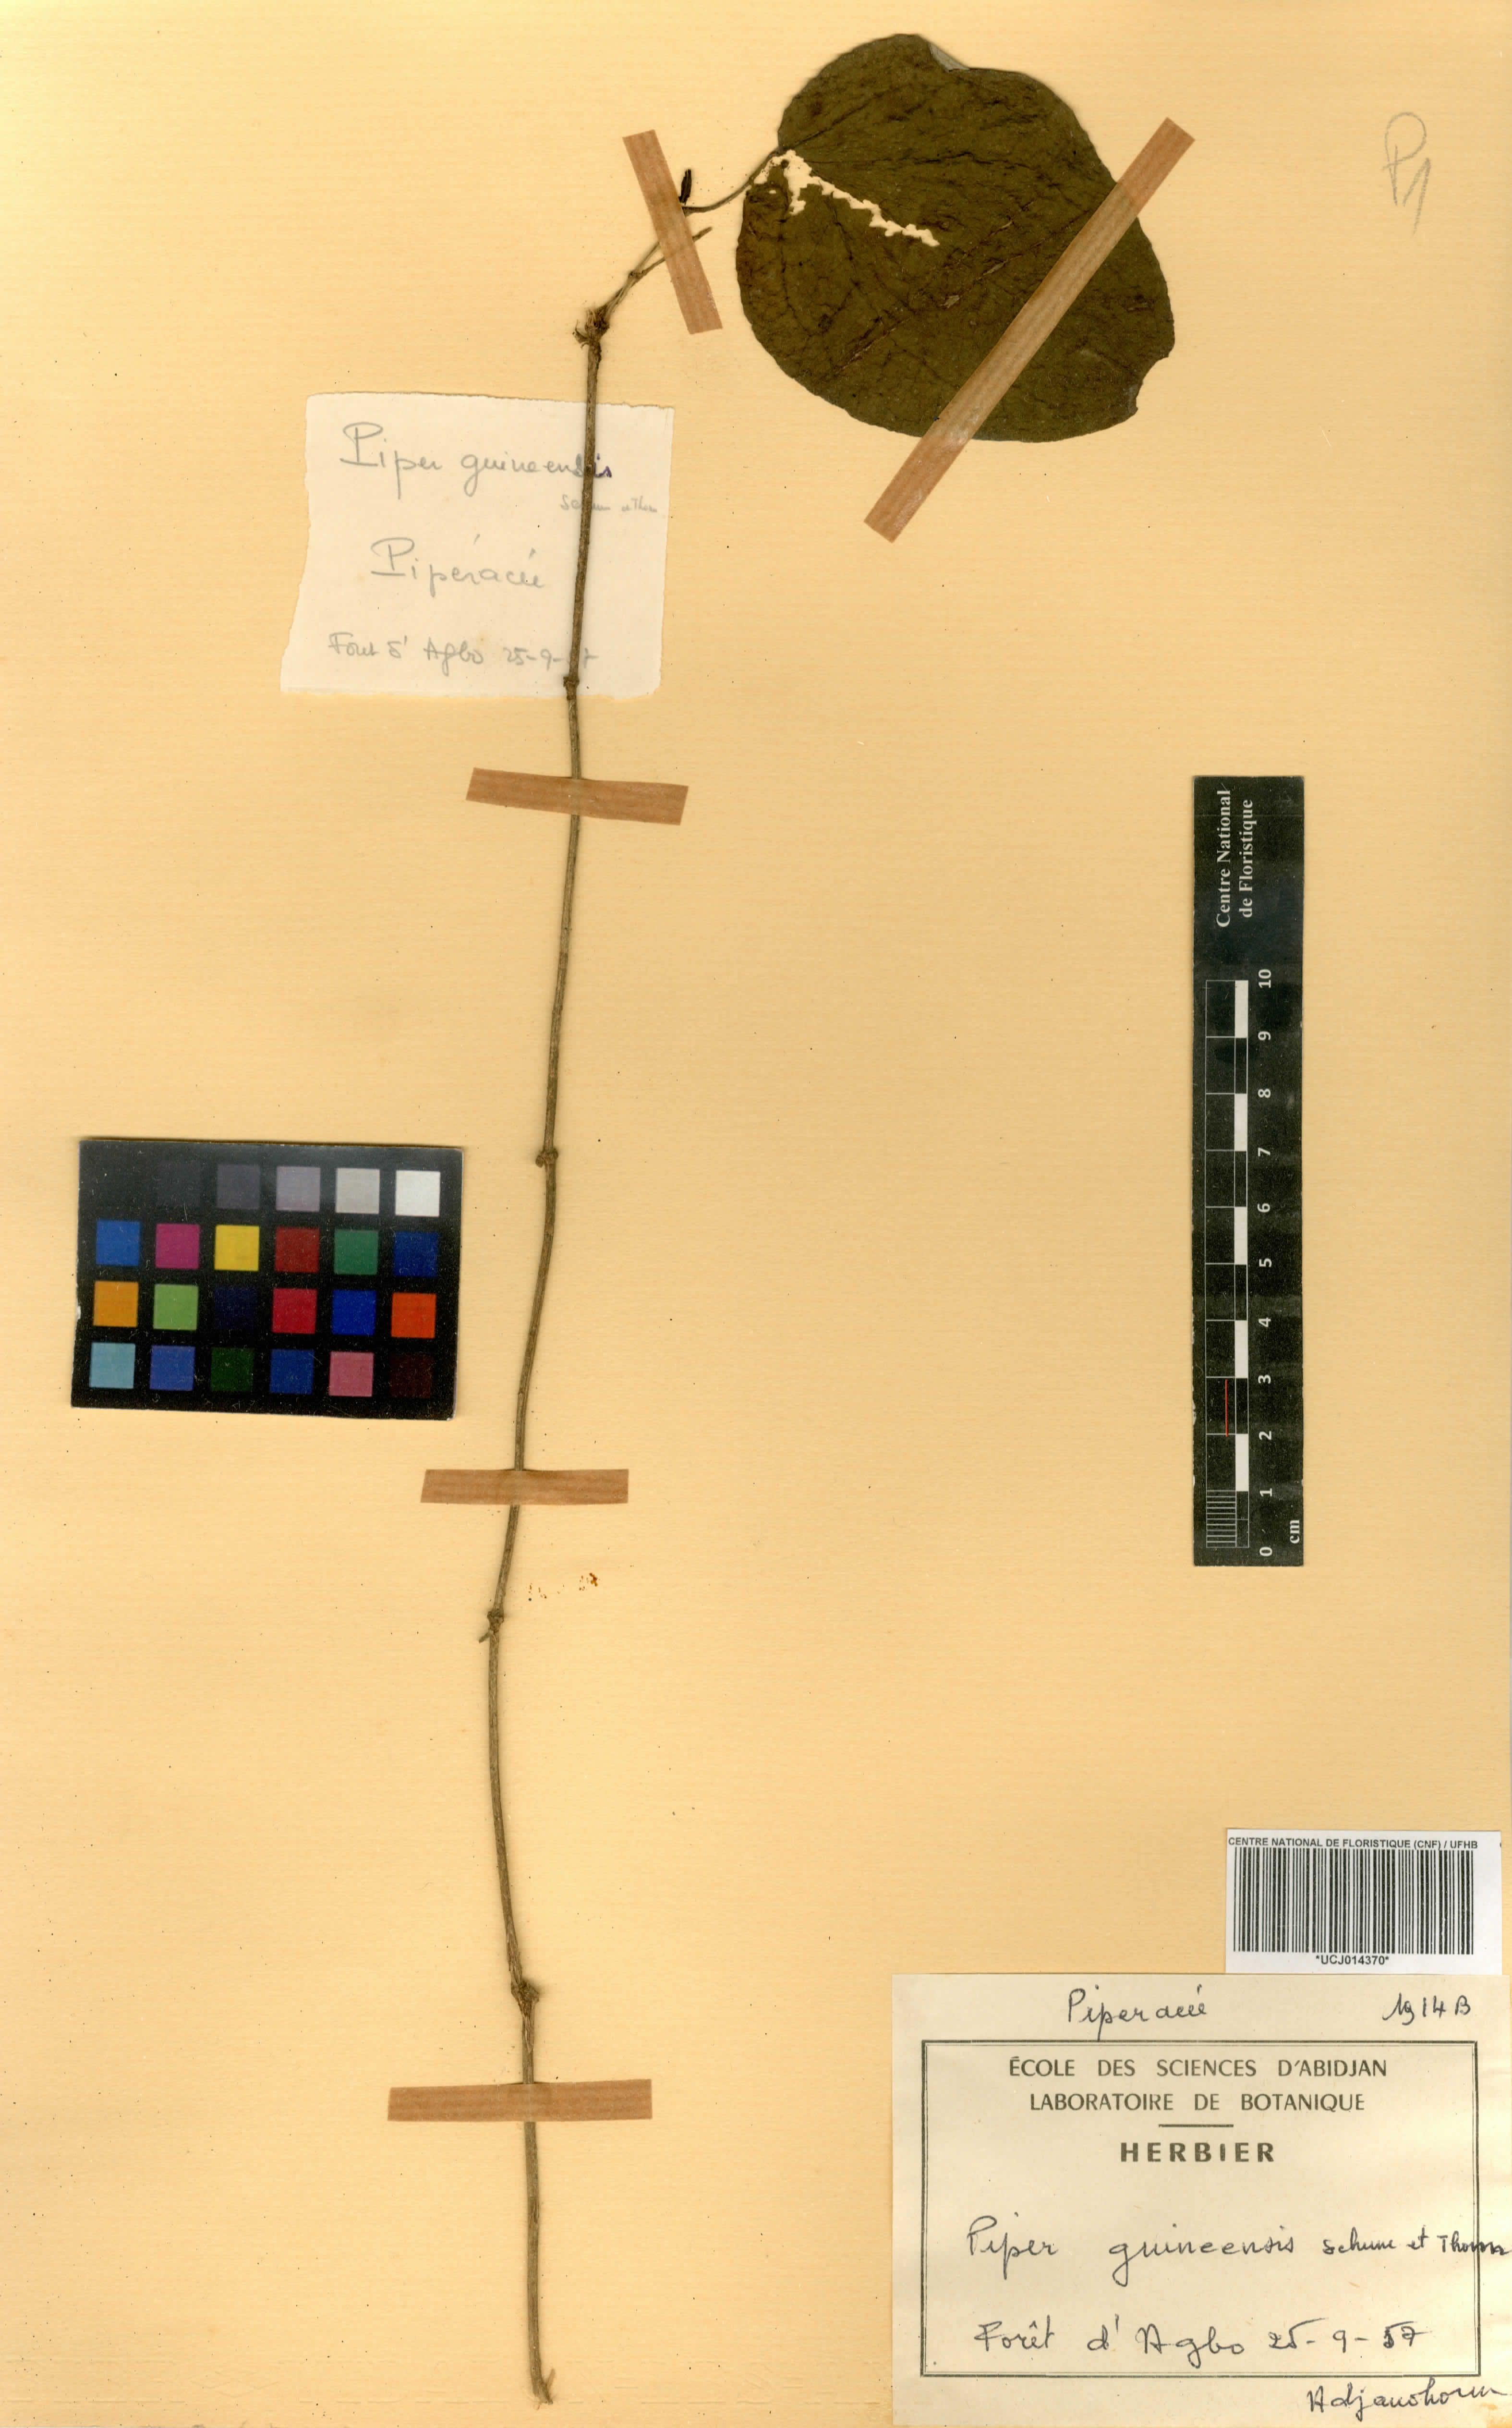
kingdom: Plantae
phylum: Tracheophyta
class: Magnoliopsida
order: Piperales
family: Piperaceae
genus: Piper
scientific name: Piper guineense
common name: Benin pepper
